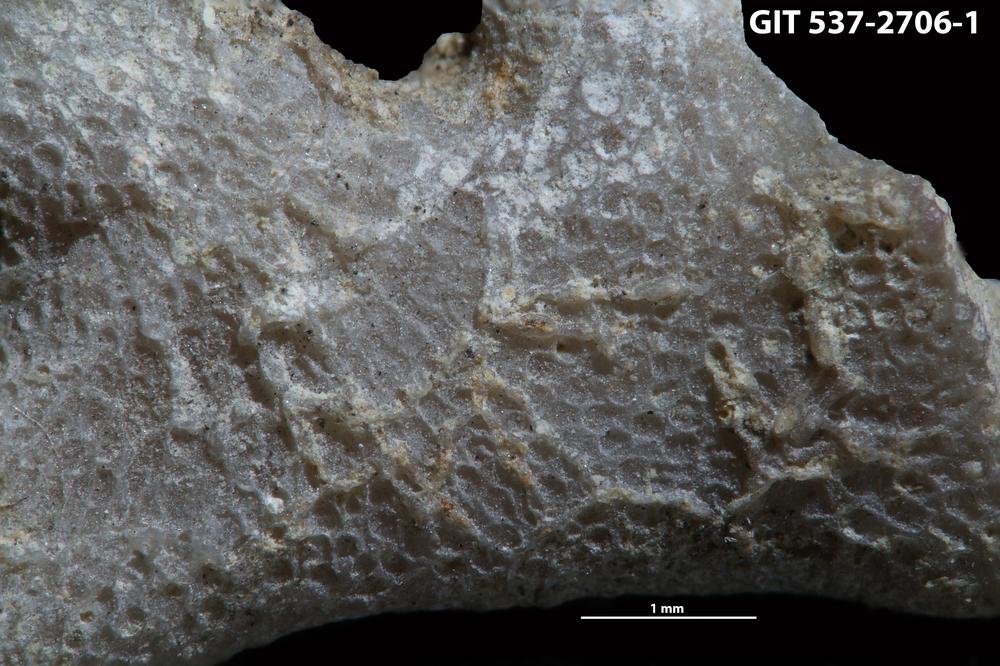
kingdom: Animalia
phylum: Bryozoa
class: Stenolaemata
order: Cyclostomatida
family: Corynotrypidae
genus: Corynotrypa
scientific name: Corynotrypa
